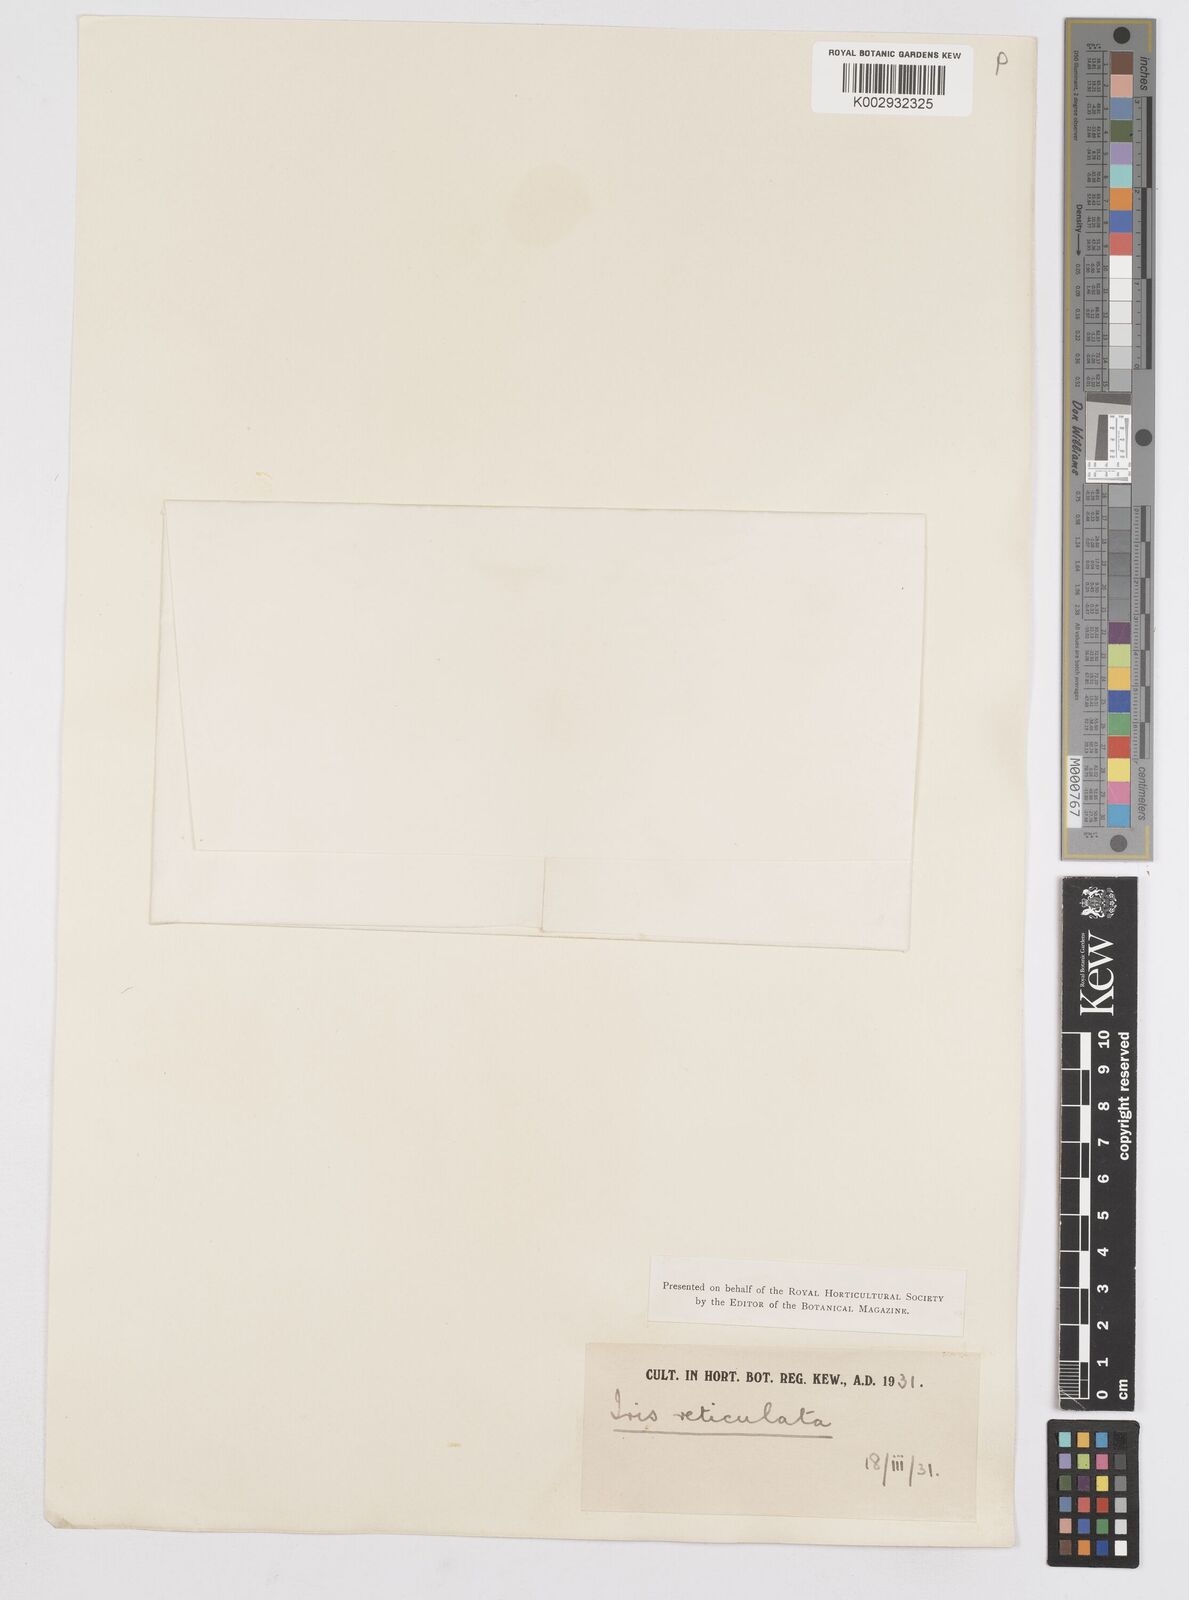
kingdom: Plantae
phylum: Tracheophyta
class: Liliopsida
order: Asparagales
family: Iridaceae
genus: Iris
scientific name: Iris reticulata
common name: Netted iris
